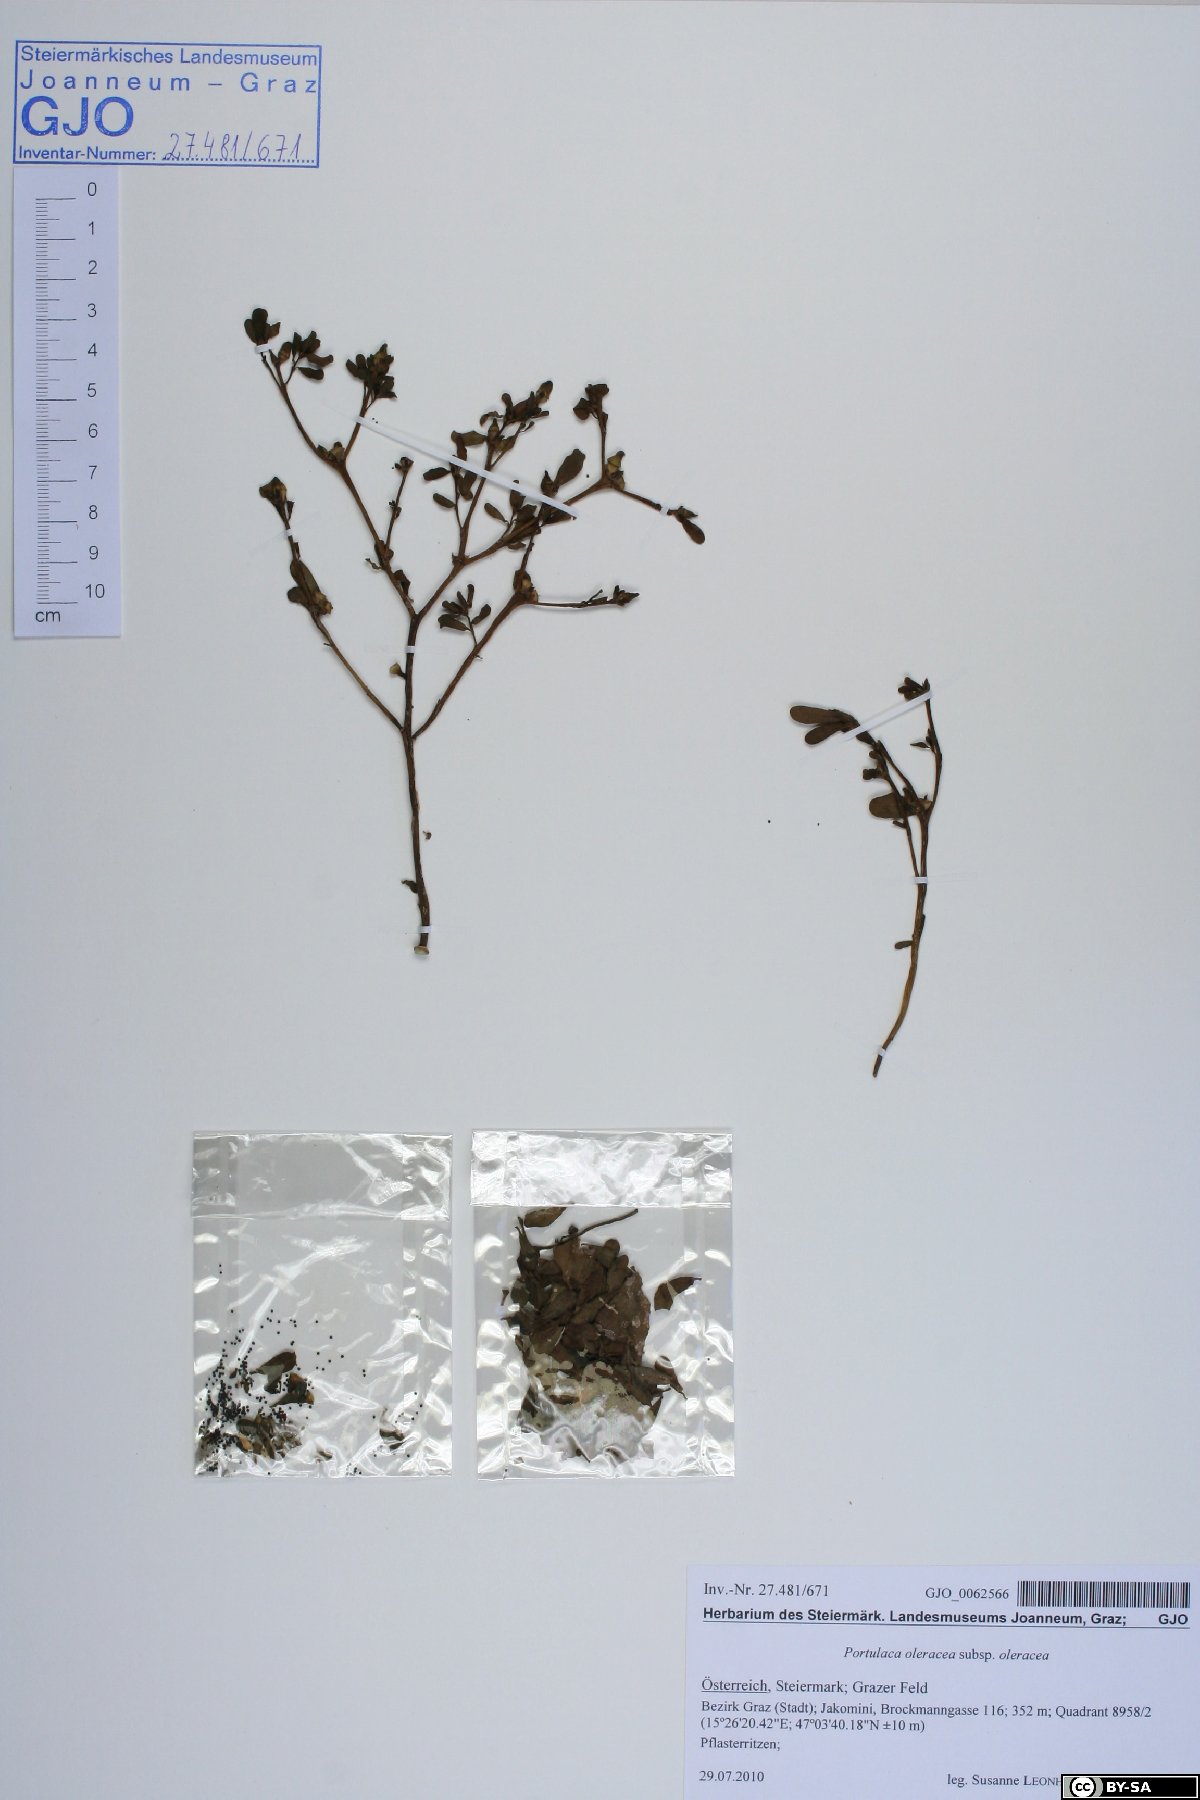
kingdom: Plantae
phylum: Tracheophyta
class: Magnoliopsida
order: Caryophyllales
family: Portulacaceae
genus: Portulaca
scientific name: Portulaca oleracea
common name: Common purslane
